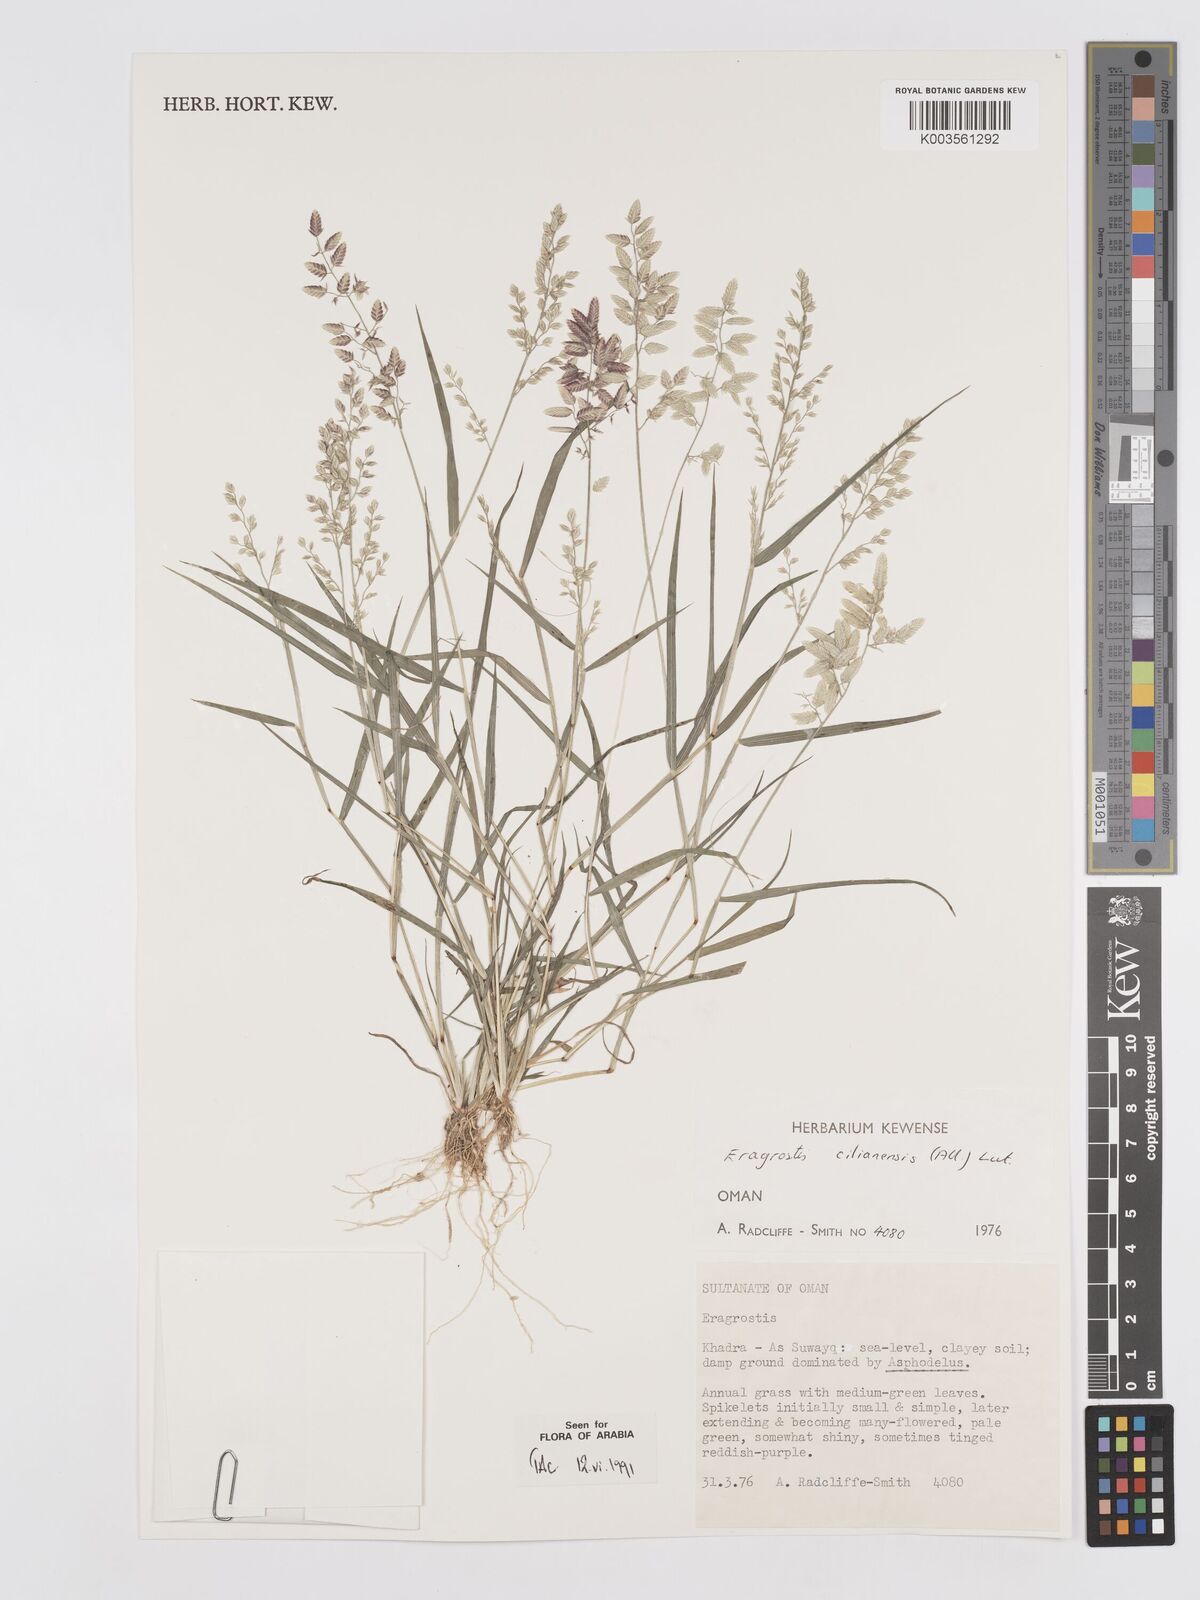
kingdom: Plantae
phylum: Tracheophyta
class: Liliopsida
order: Poales
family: Poaceae
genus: Eragrostis
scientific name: Eragrostis cilianensis
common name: Stinkgrass
